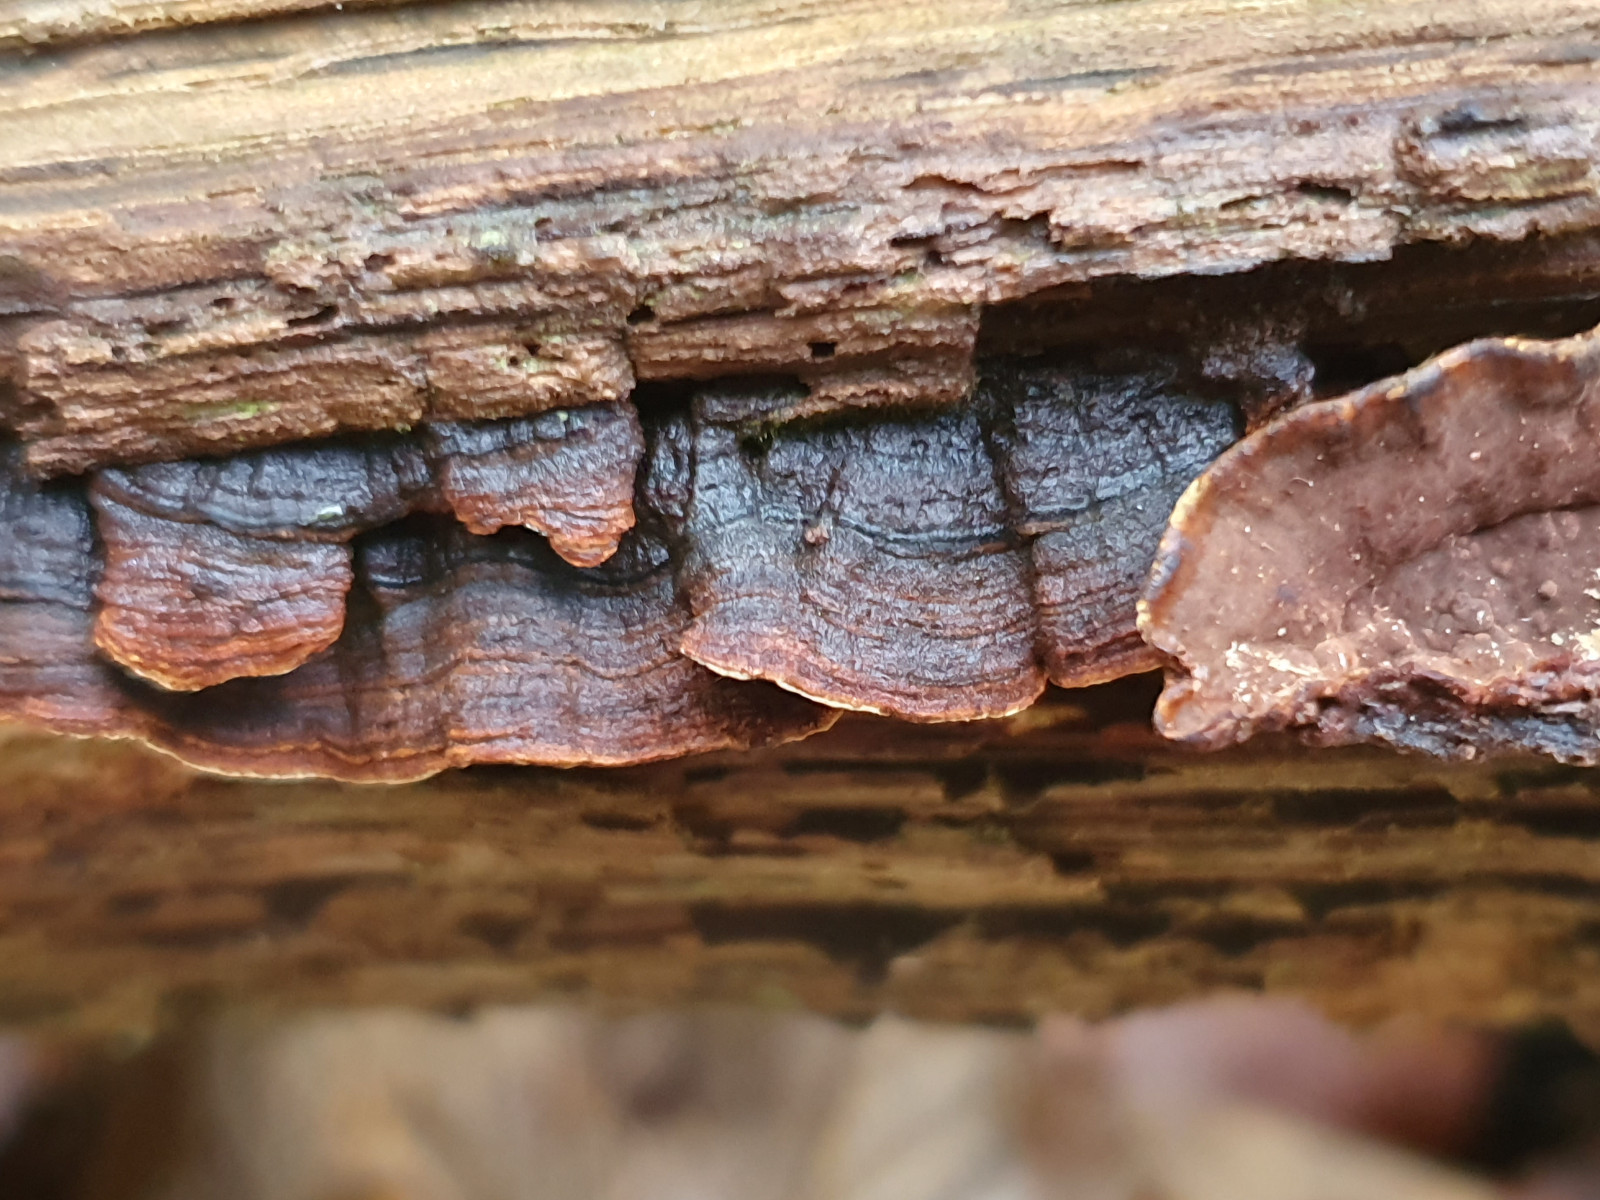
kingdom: Fungi
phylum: Basidiomycota
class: Agaricomycetes
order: Hymenochaetales
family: Hymenochaetaceae
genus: Hymenochaete
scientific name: Hymenochaete rubiginosa
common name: stiv ruslædersvamp
